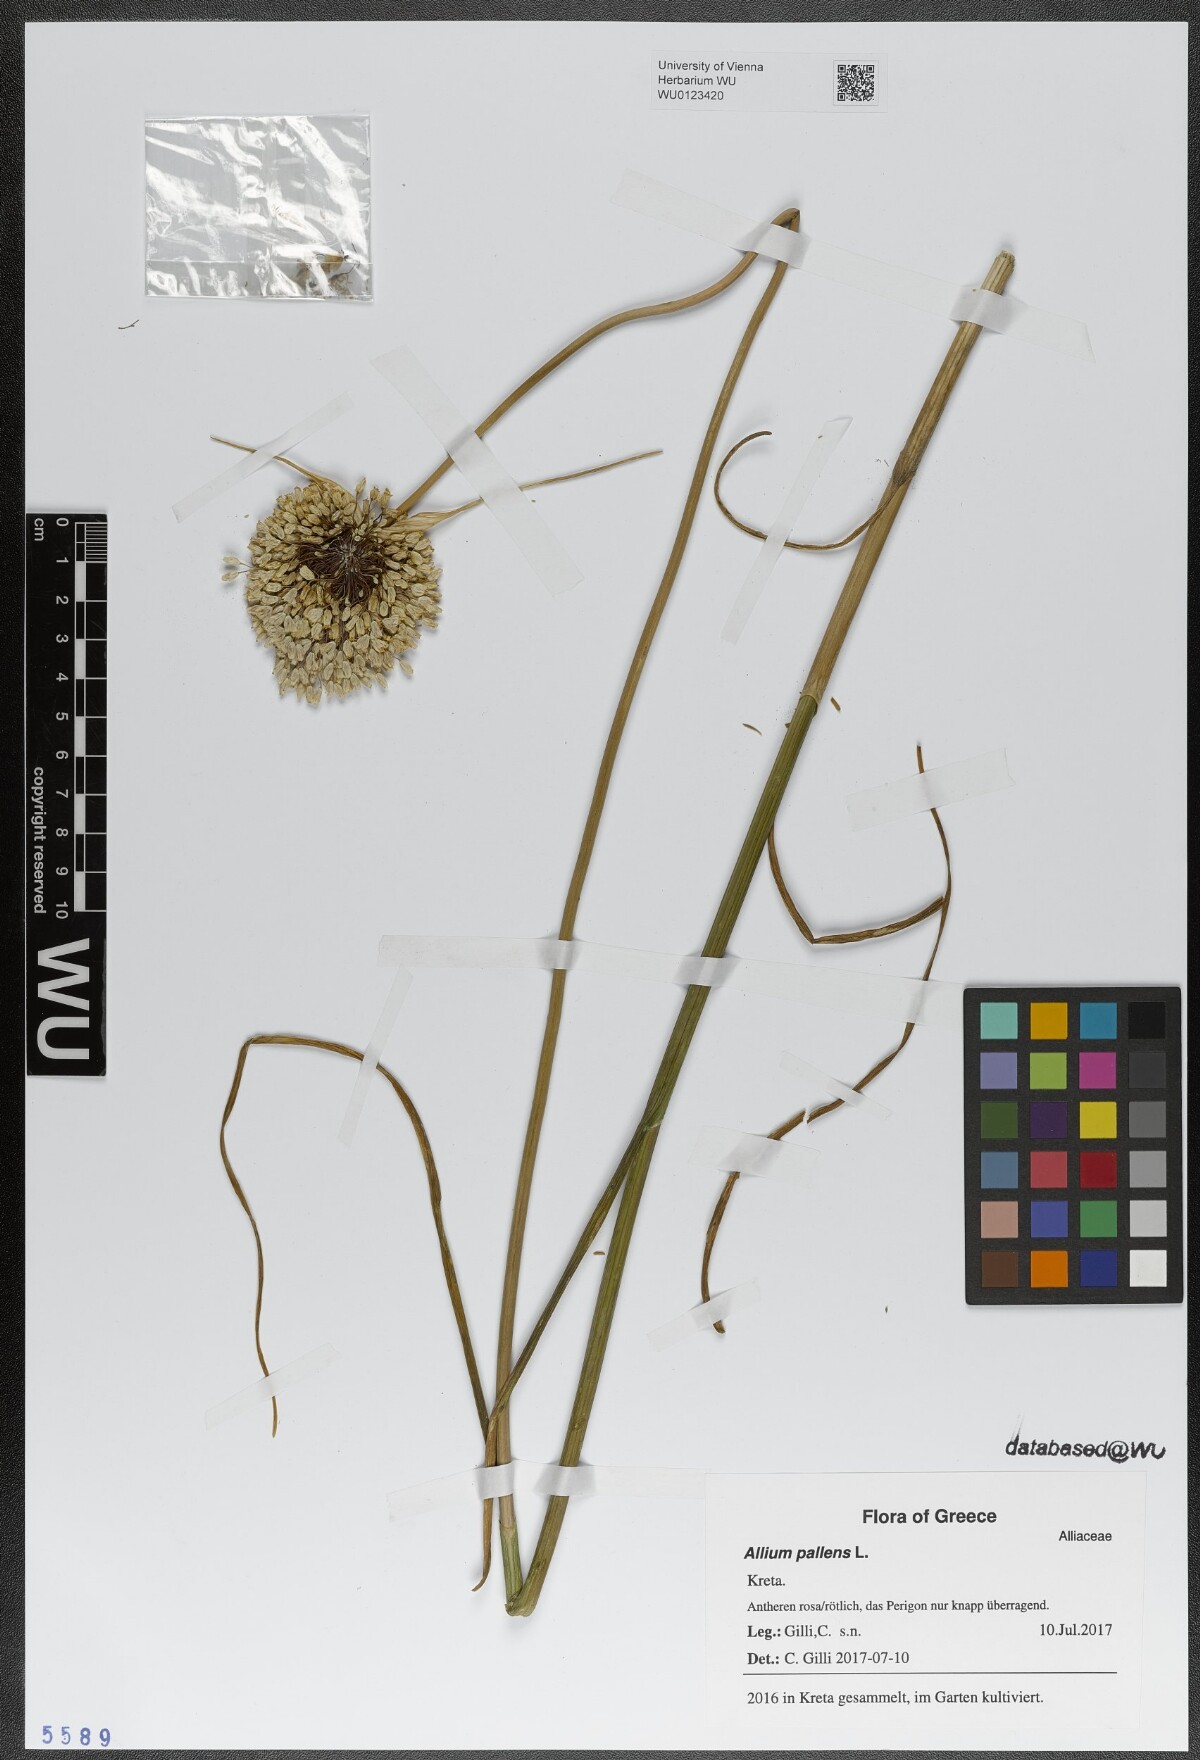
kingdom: Plantae
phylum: Tracheophyta
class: Liliopsida
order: Asparagales
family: Amaryllidaceae
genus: Allium
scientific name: Allium pallens
